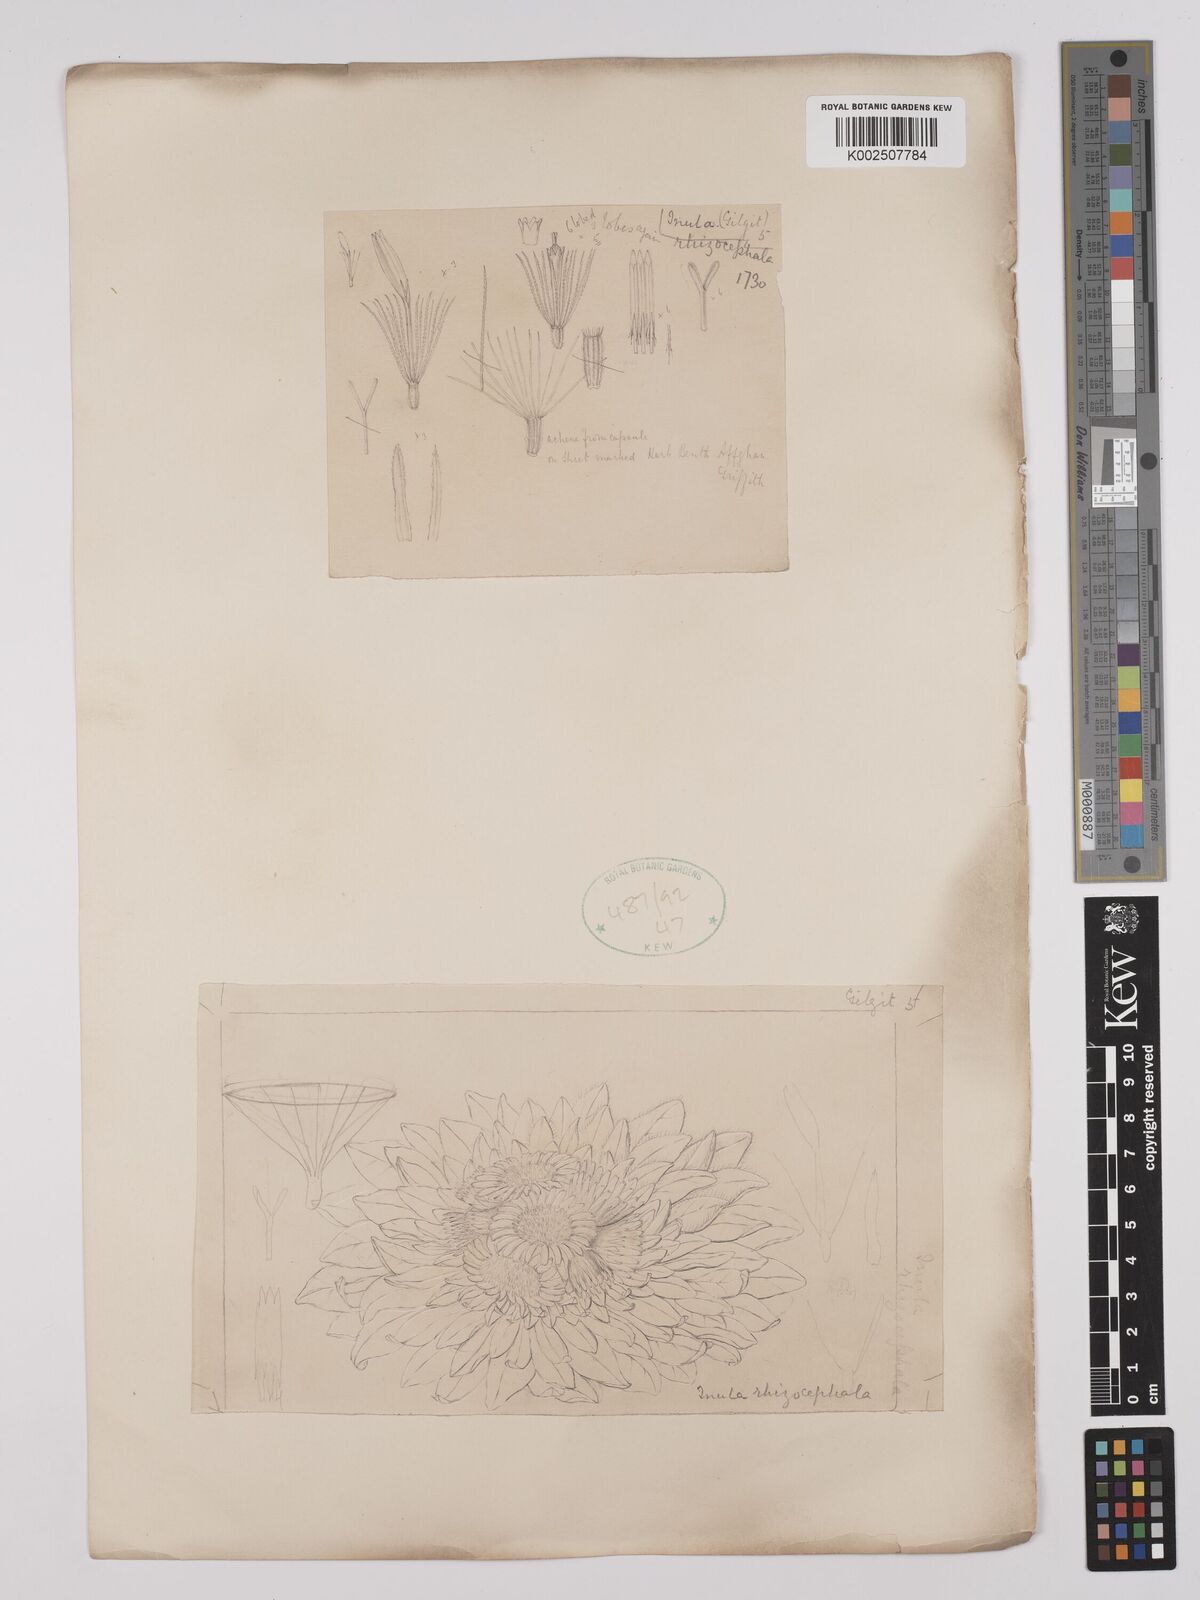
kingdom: Plantae
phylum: Tracheophyta
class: Magnoliopsida
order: Asterales
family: Asteraceae
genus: Inula
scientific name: Inula rhizocephala
